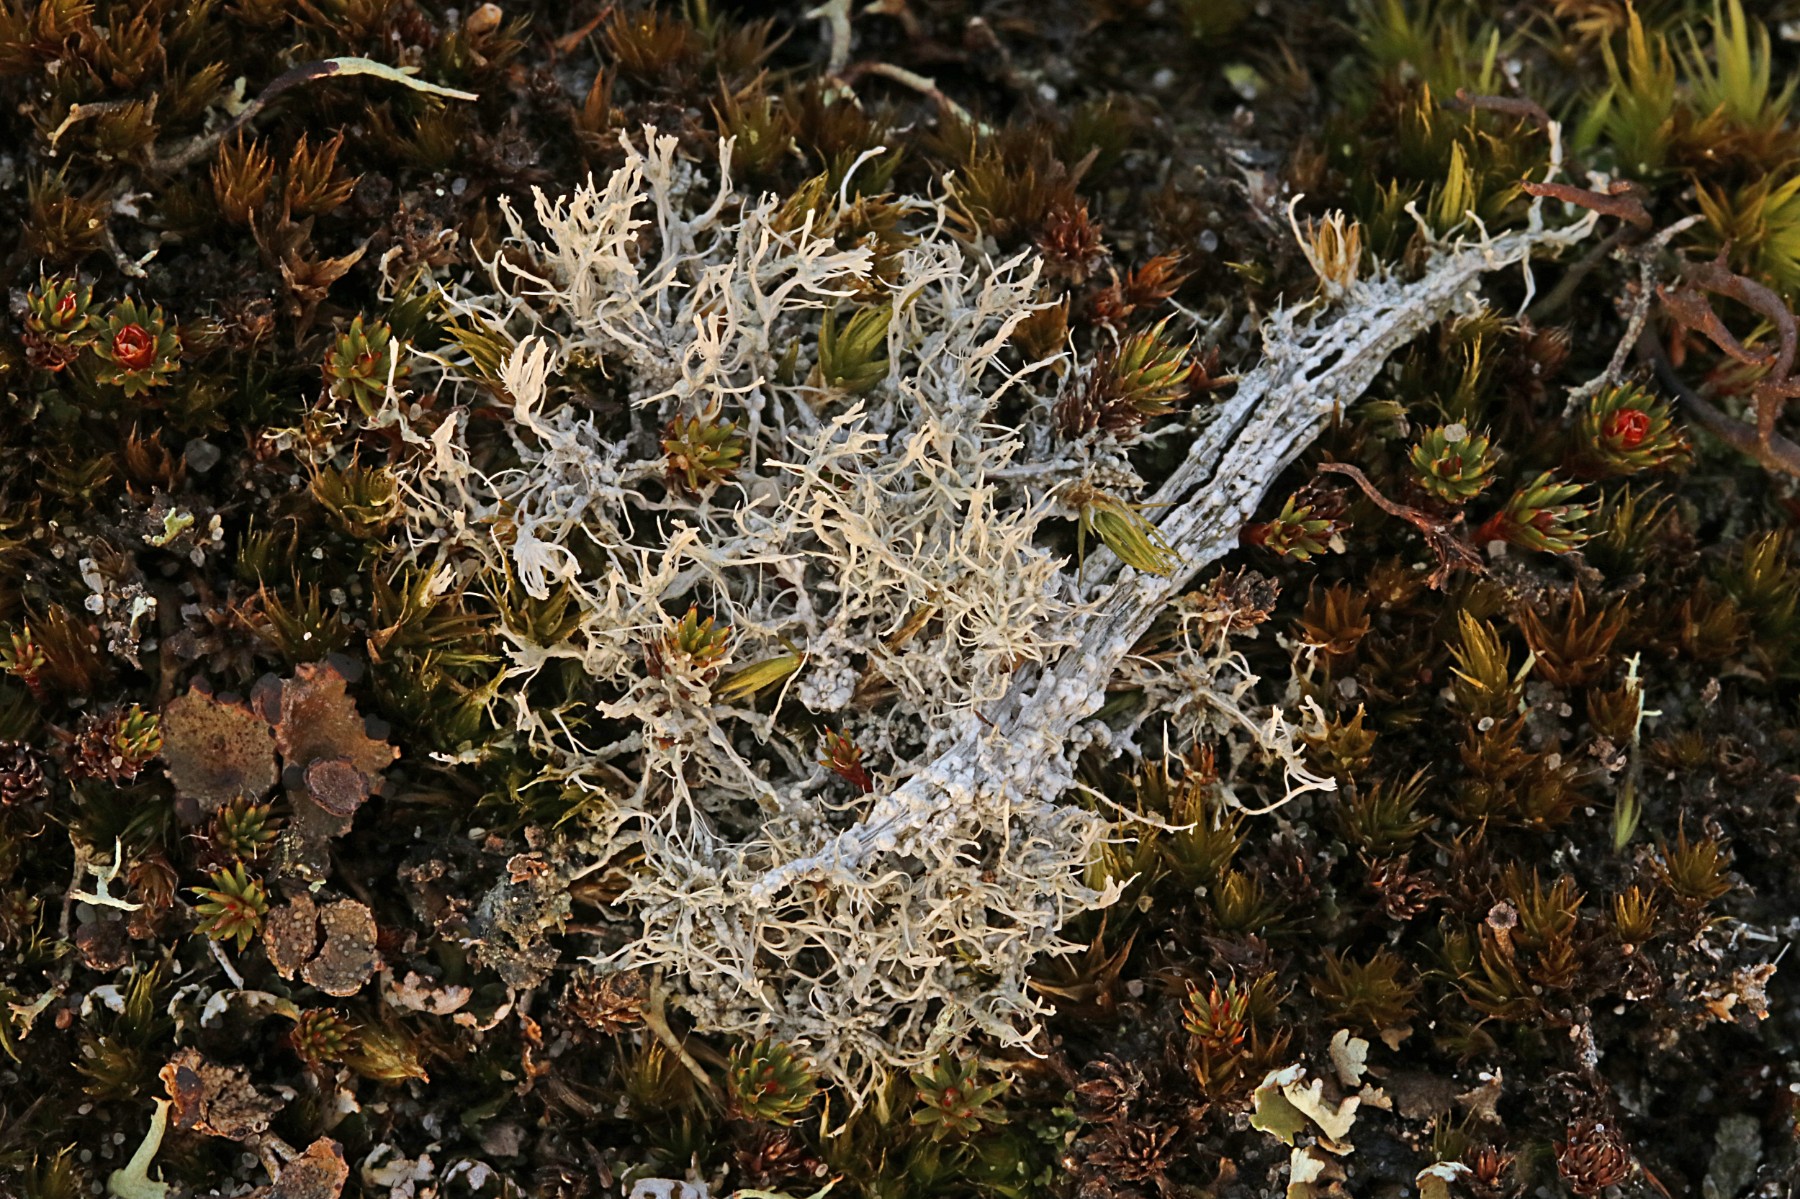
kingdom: Fungi
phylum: Ascomycota
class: Lecanoromycetes
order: Pertusariales
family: Ochrolechiaceae
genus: Ochrolechia
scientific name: Ochrolechia frigida
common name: fjeld-blegskivelav
